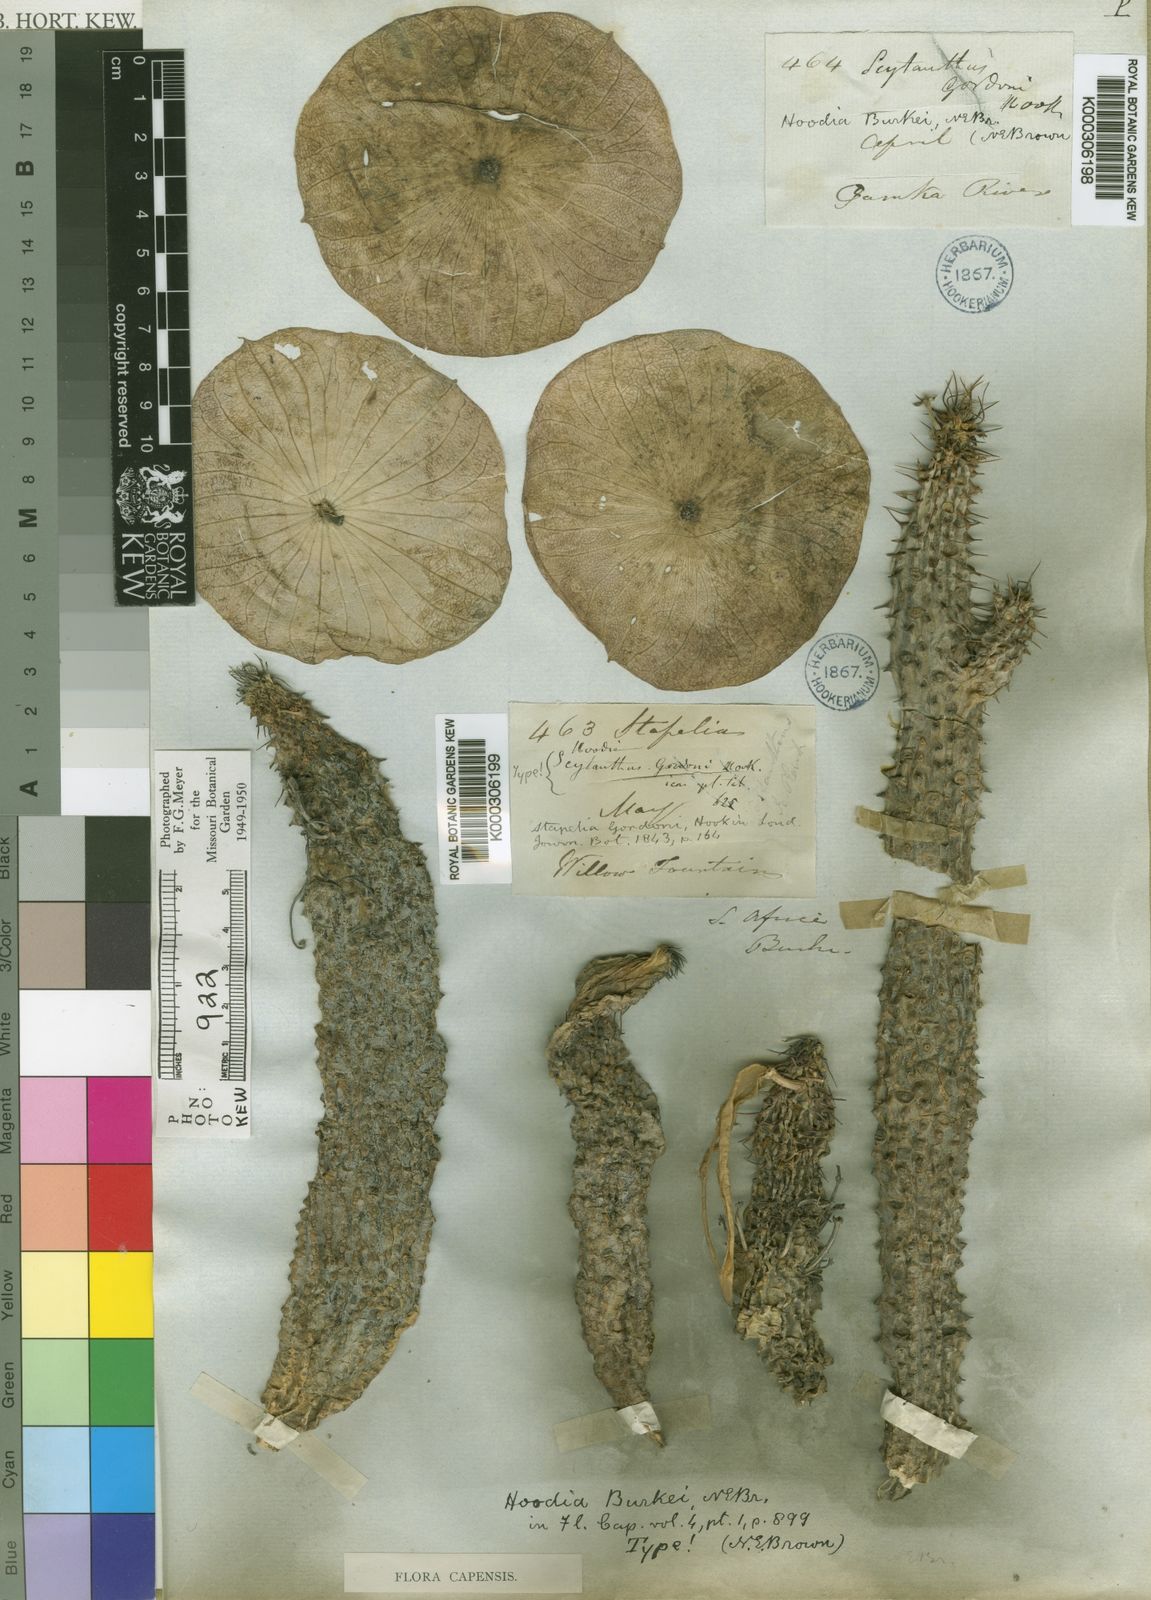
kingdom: Plantae
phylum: Tracheophyta
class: Magnoliopsida
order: Gentianales
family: Apocynaceae
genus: Ceropegia
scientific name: Ceropegia gordonii
